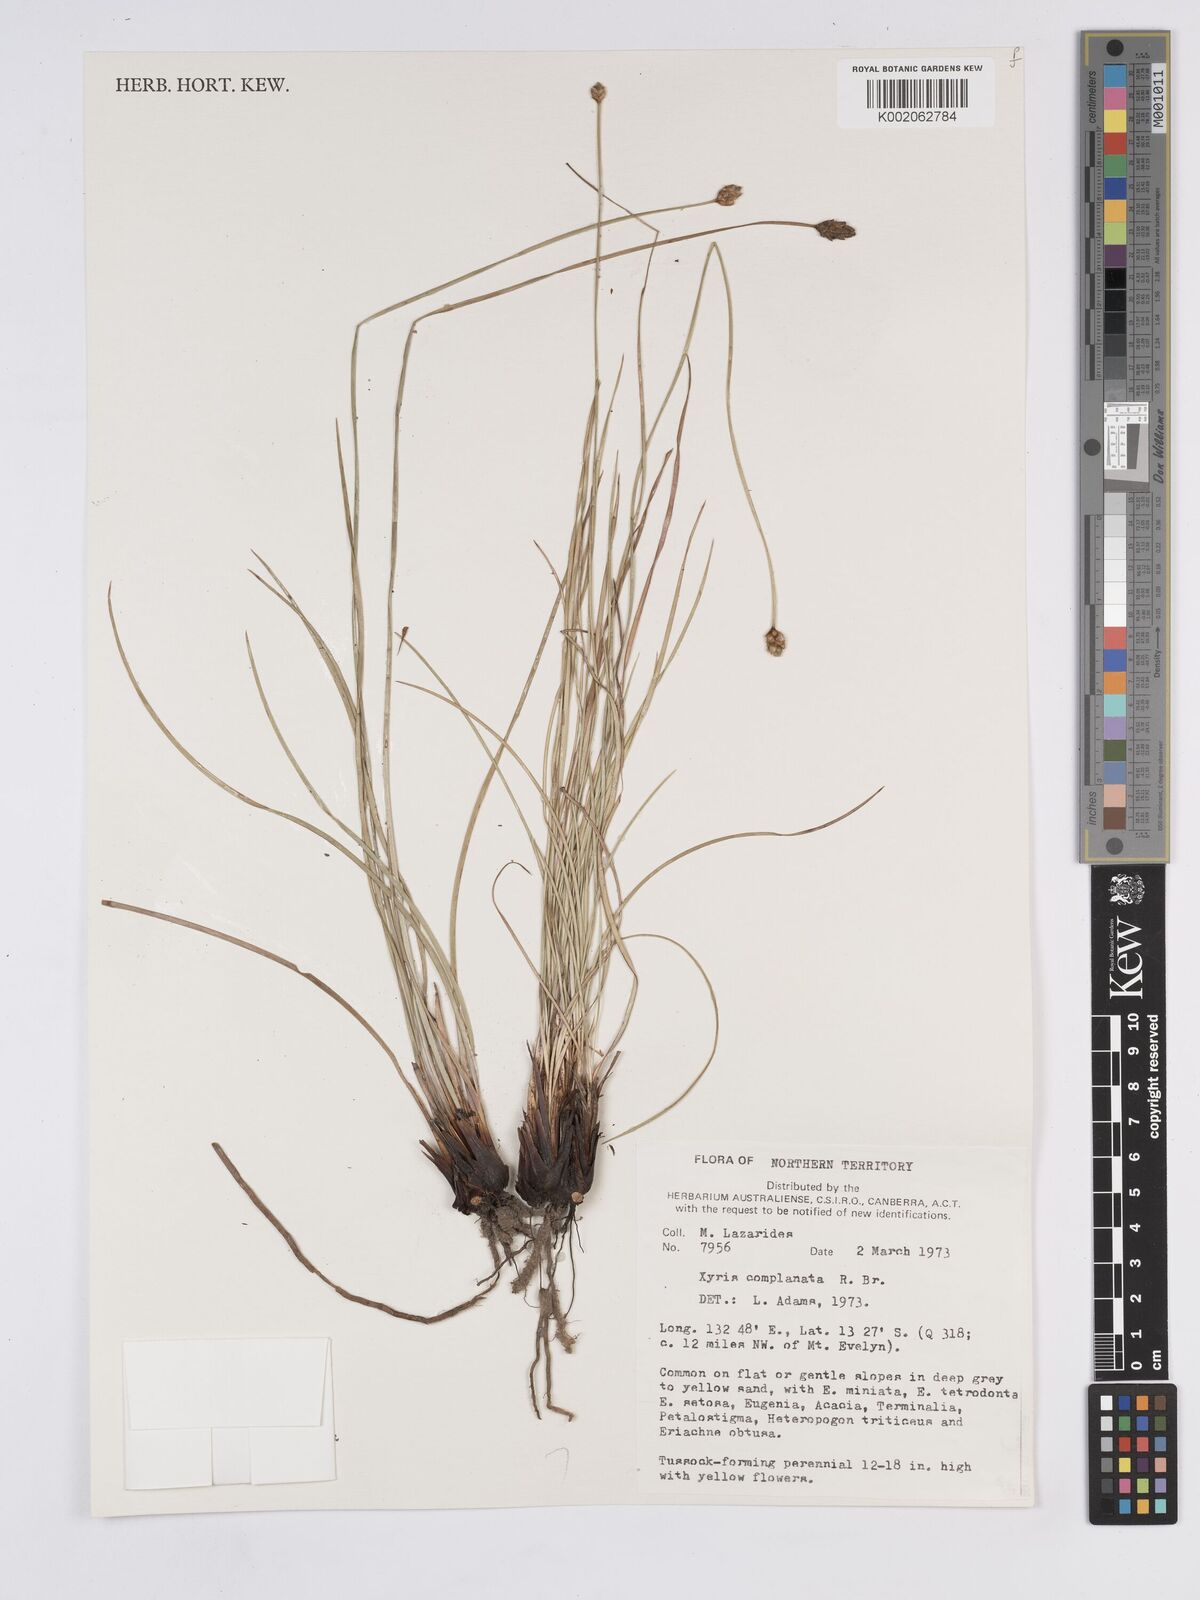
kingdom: Plantae
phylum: Tracheophyta
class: Liliopsida
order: Poales
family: Xyridaceae
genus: Xyris
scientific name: Xyris complanata
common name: Hawai'i yelloweyed grass
